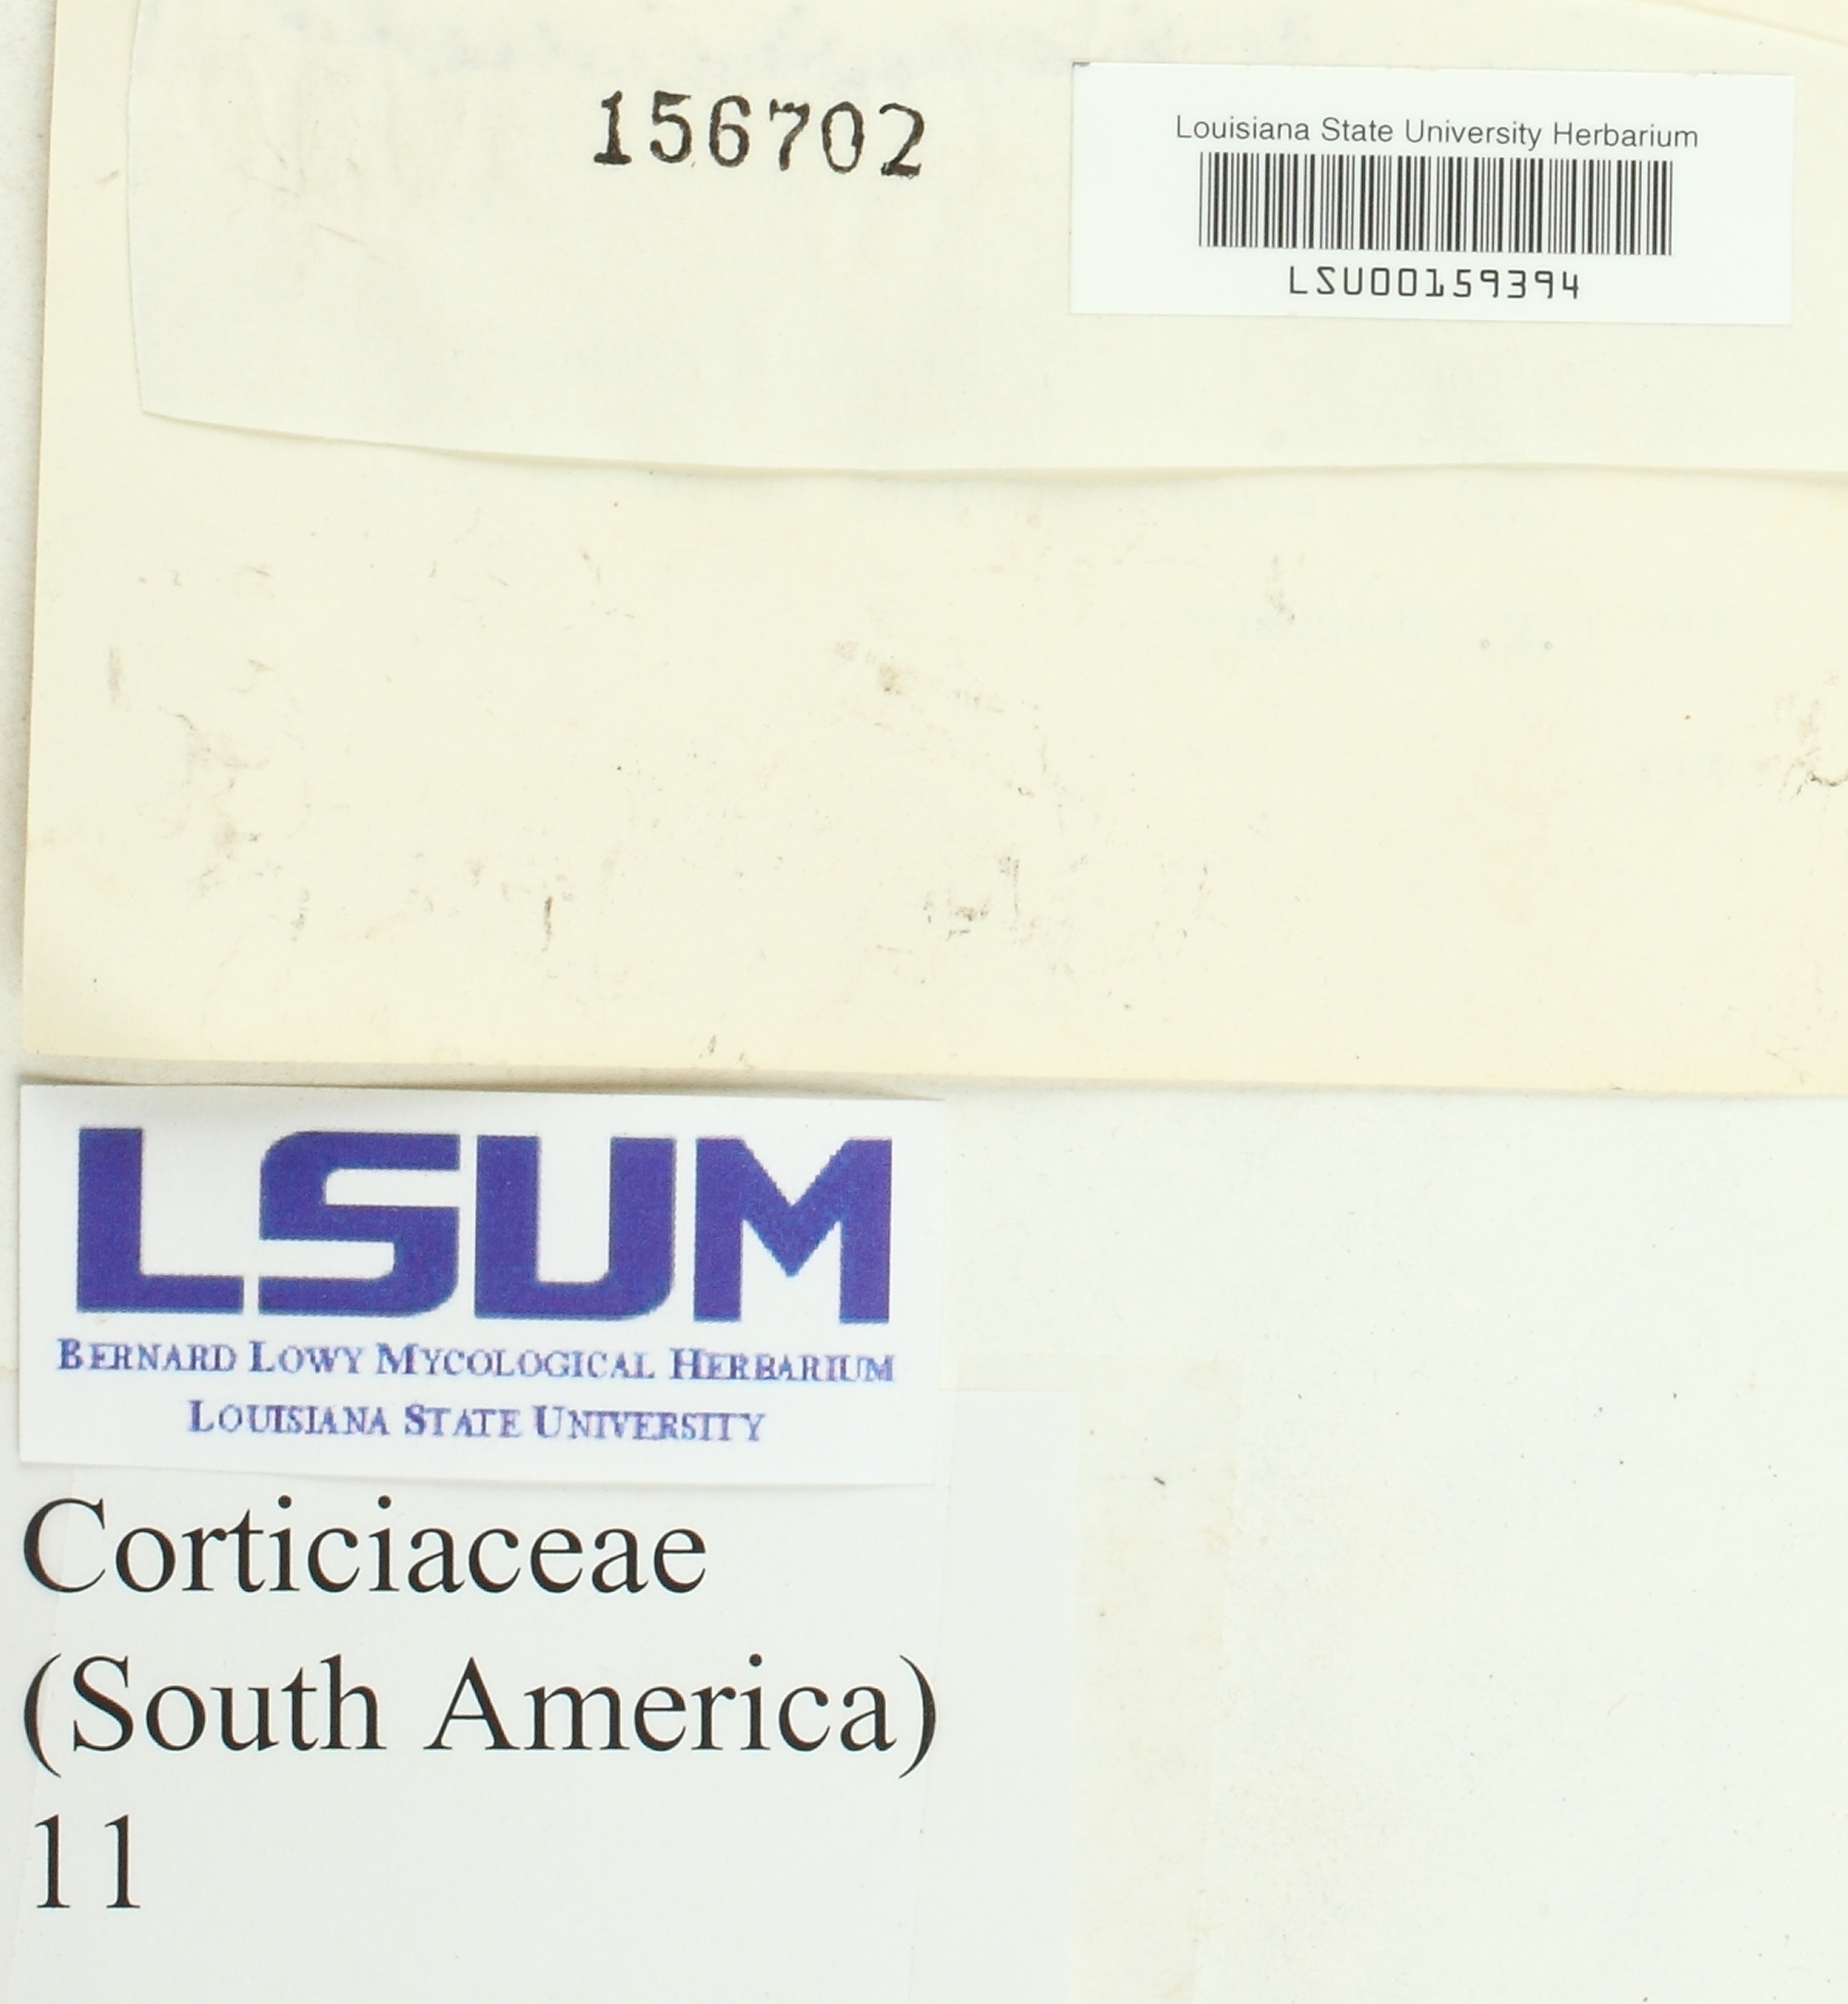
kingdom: Fungi
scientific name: Fungi
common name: Fungi
